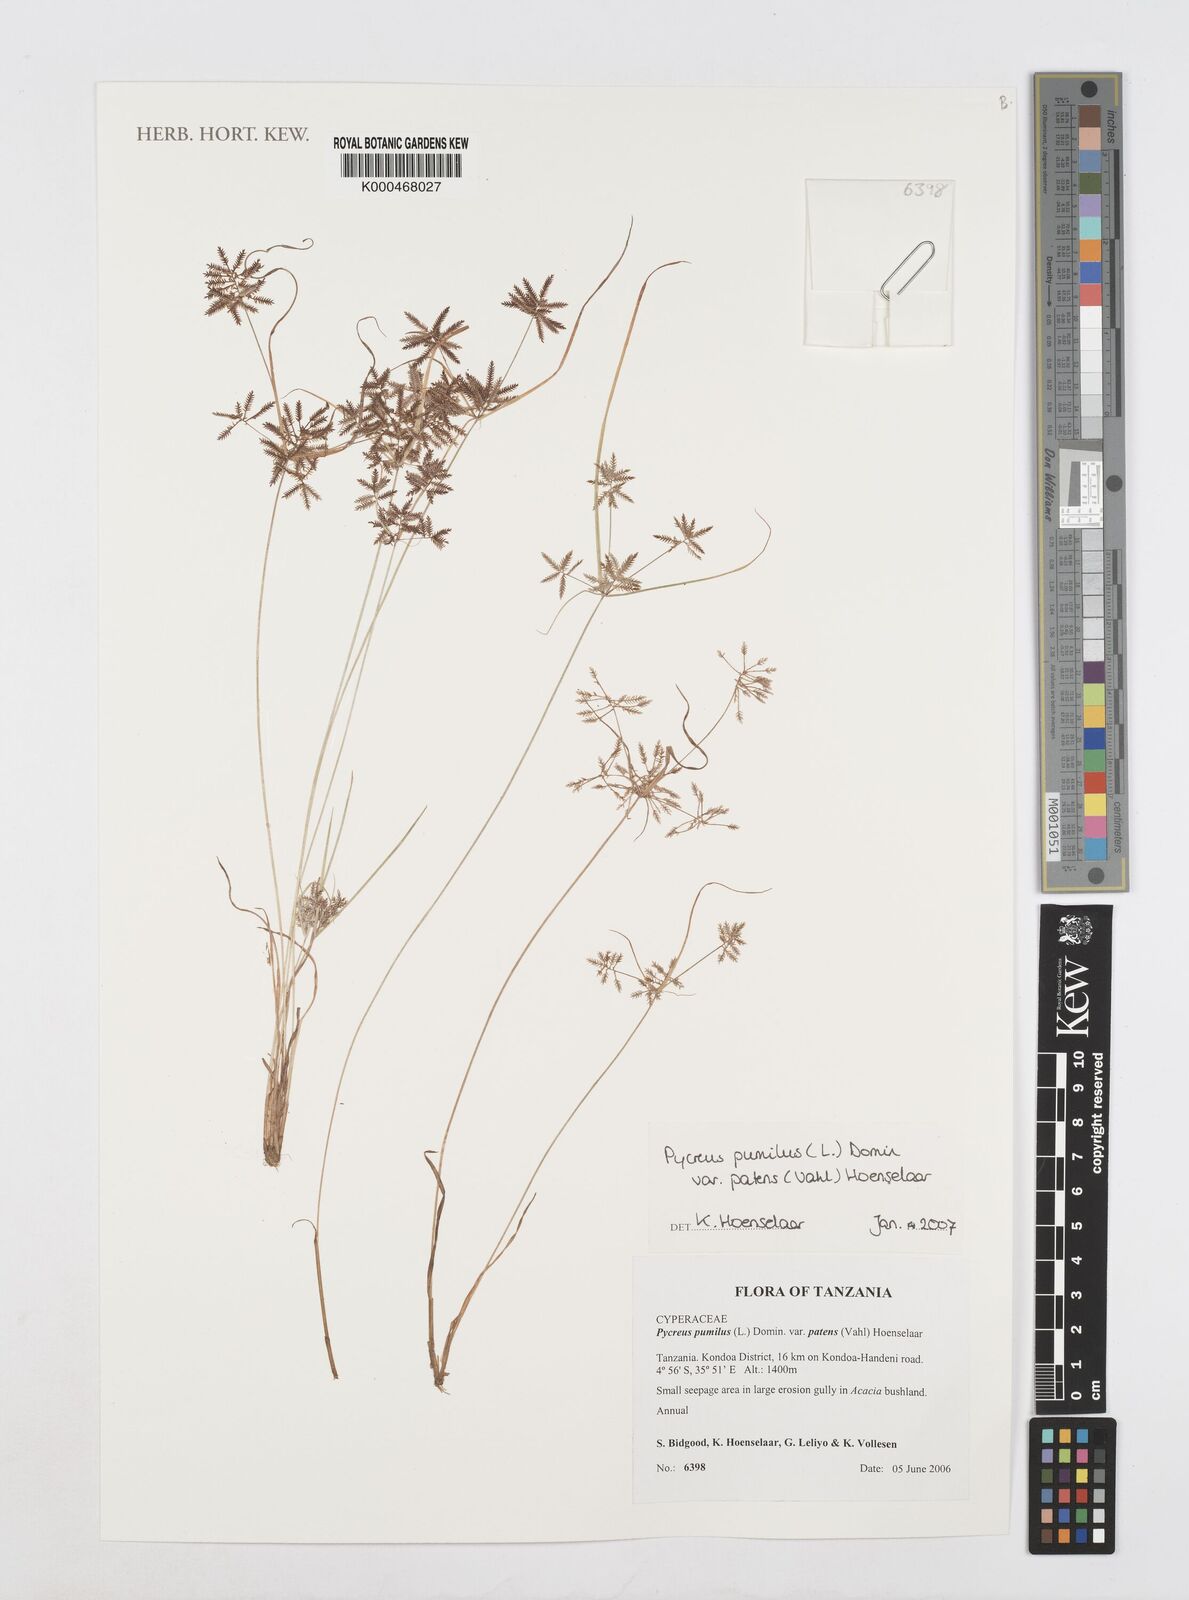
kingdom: Plantae
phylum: Tracheophyta
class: Liliopsida
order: Poales
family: Cyperaceae
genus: Cyperus
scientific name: Cyperus
